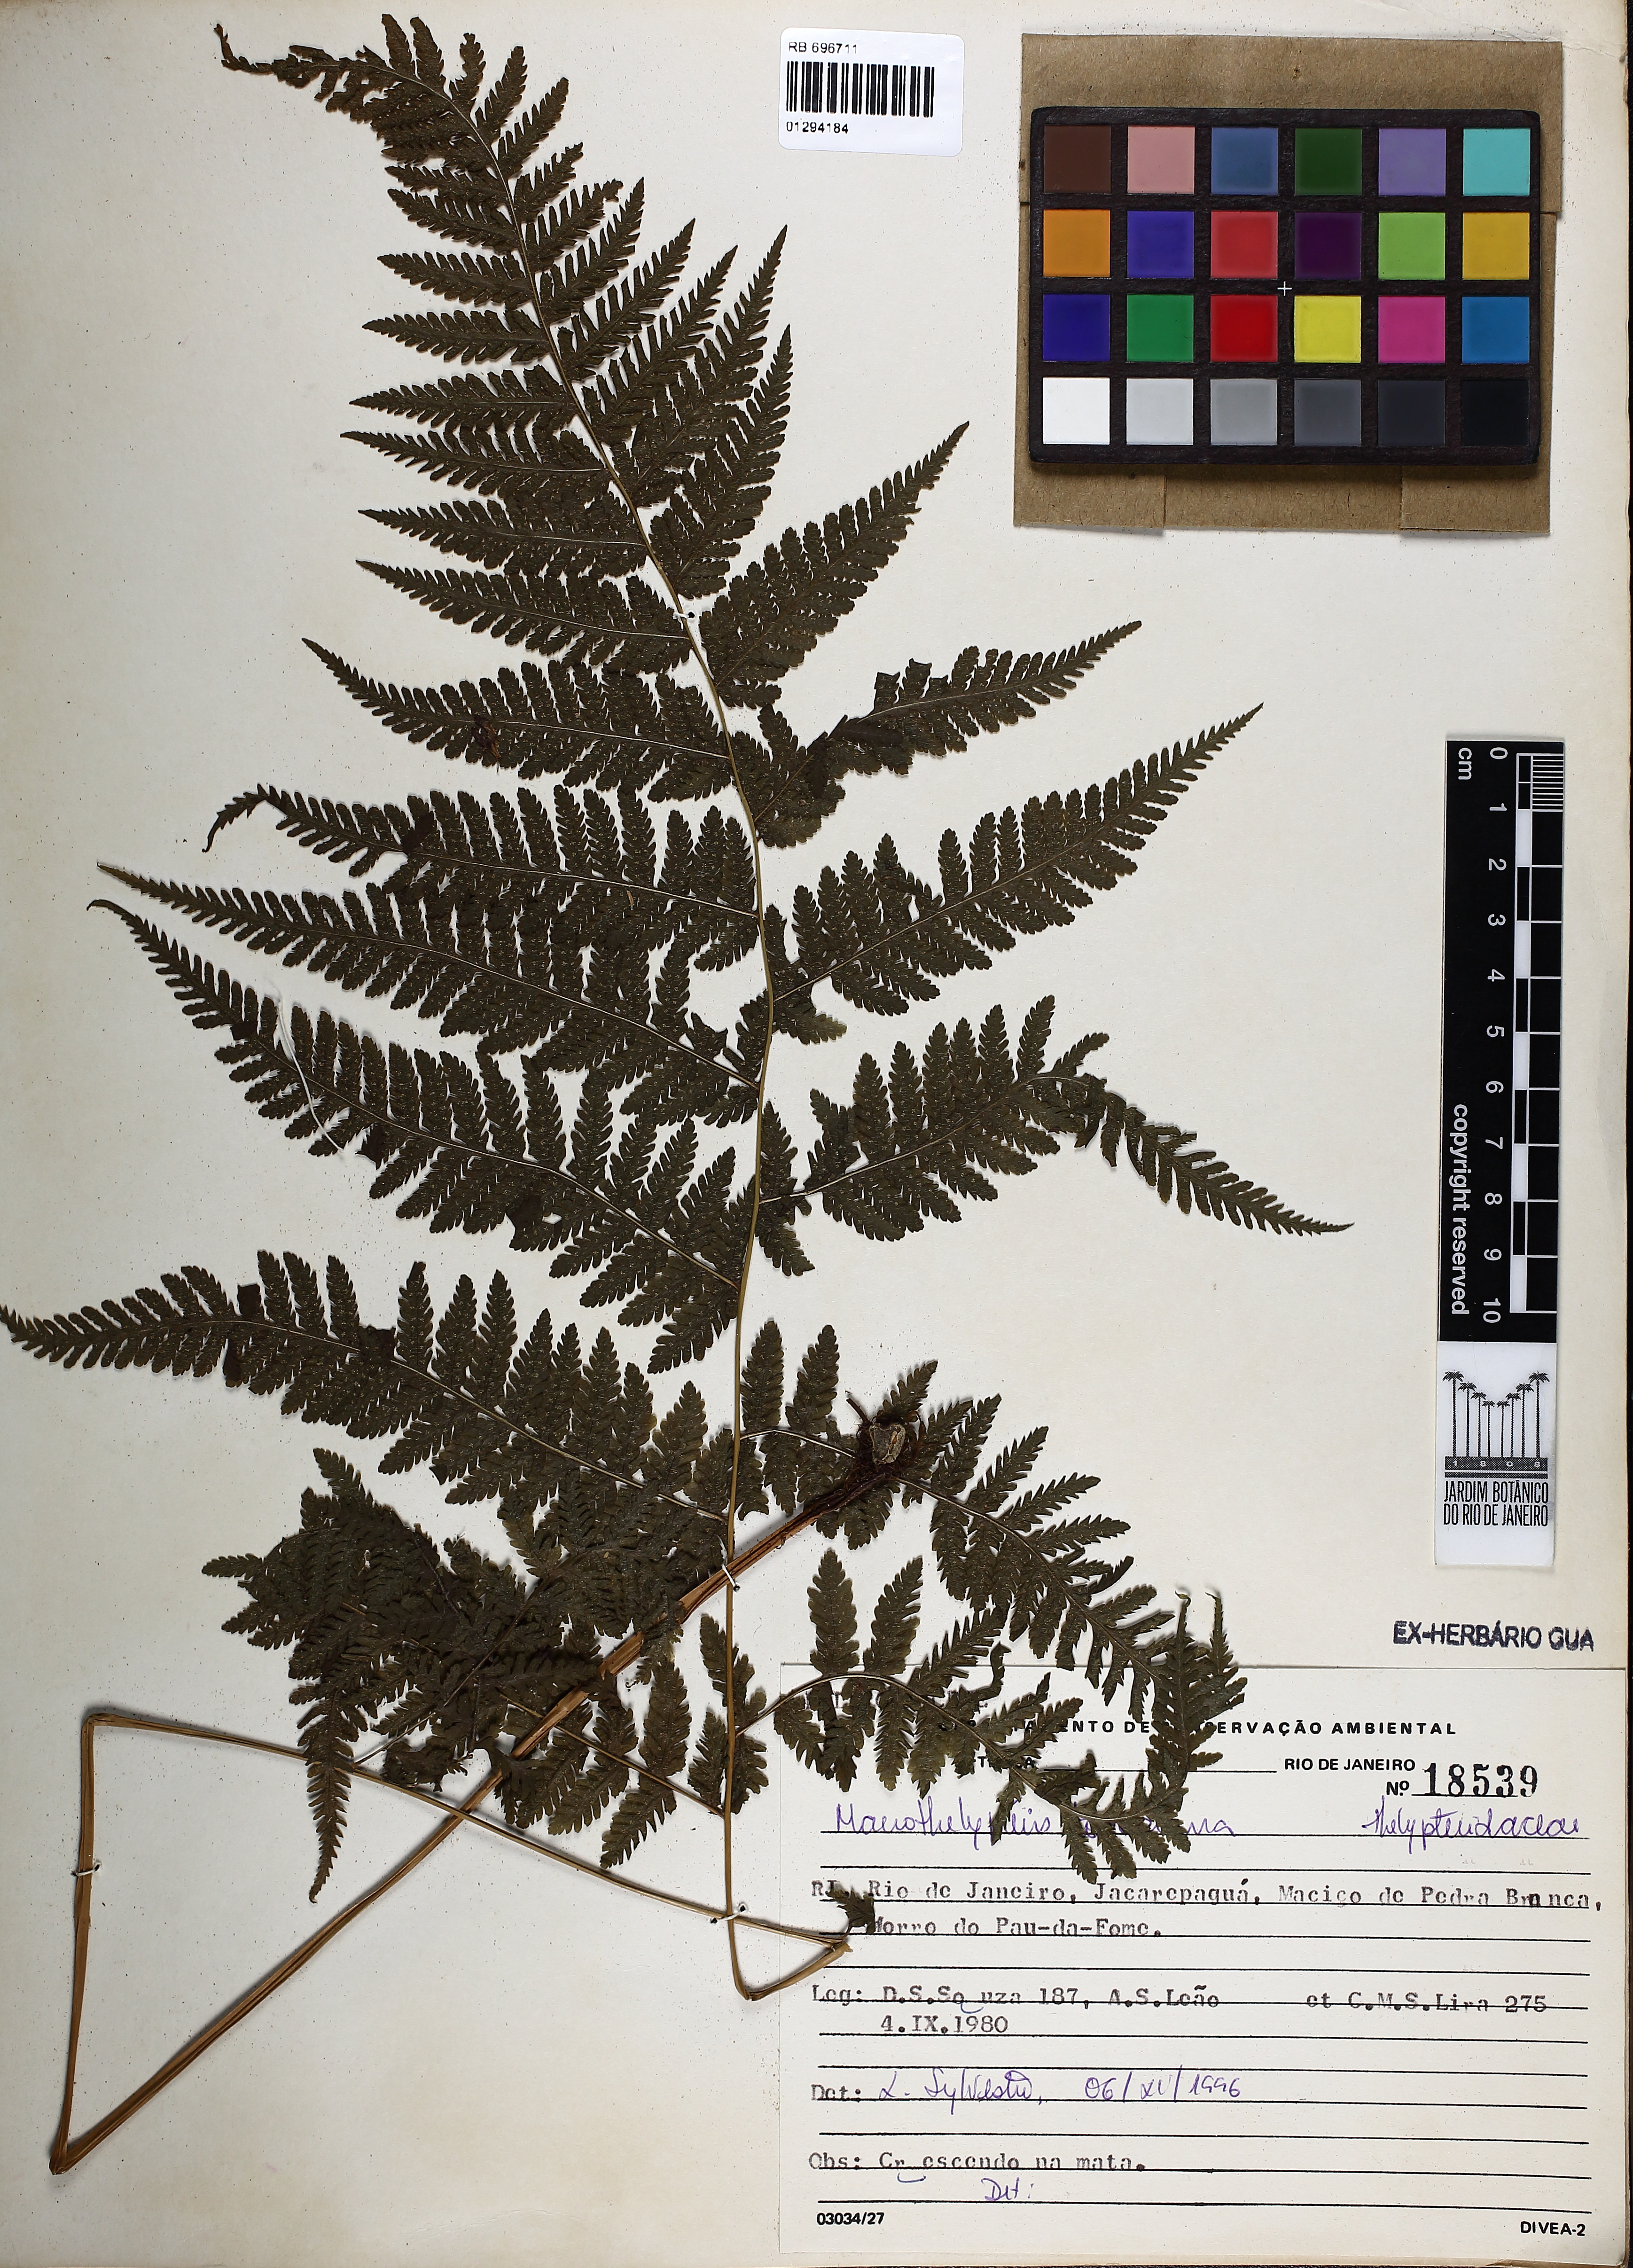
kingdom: Plantae
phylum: Tracheophyta
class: Polypodiopsida
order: Polypodiales
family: Thelypteridaceae
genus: Macrothelypteris
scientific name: Macrothelypteris torresiana
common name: Swordfern
